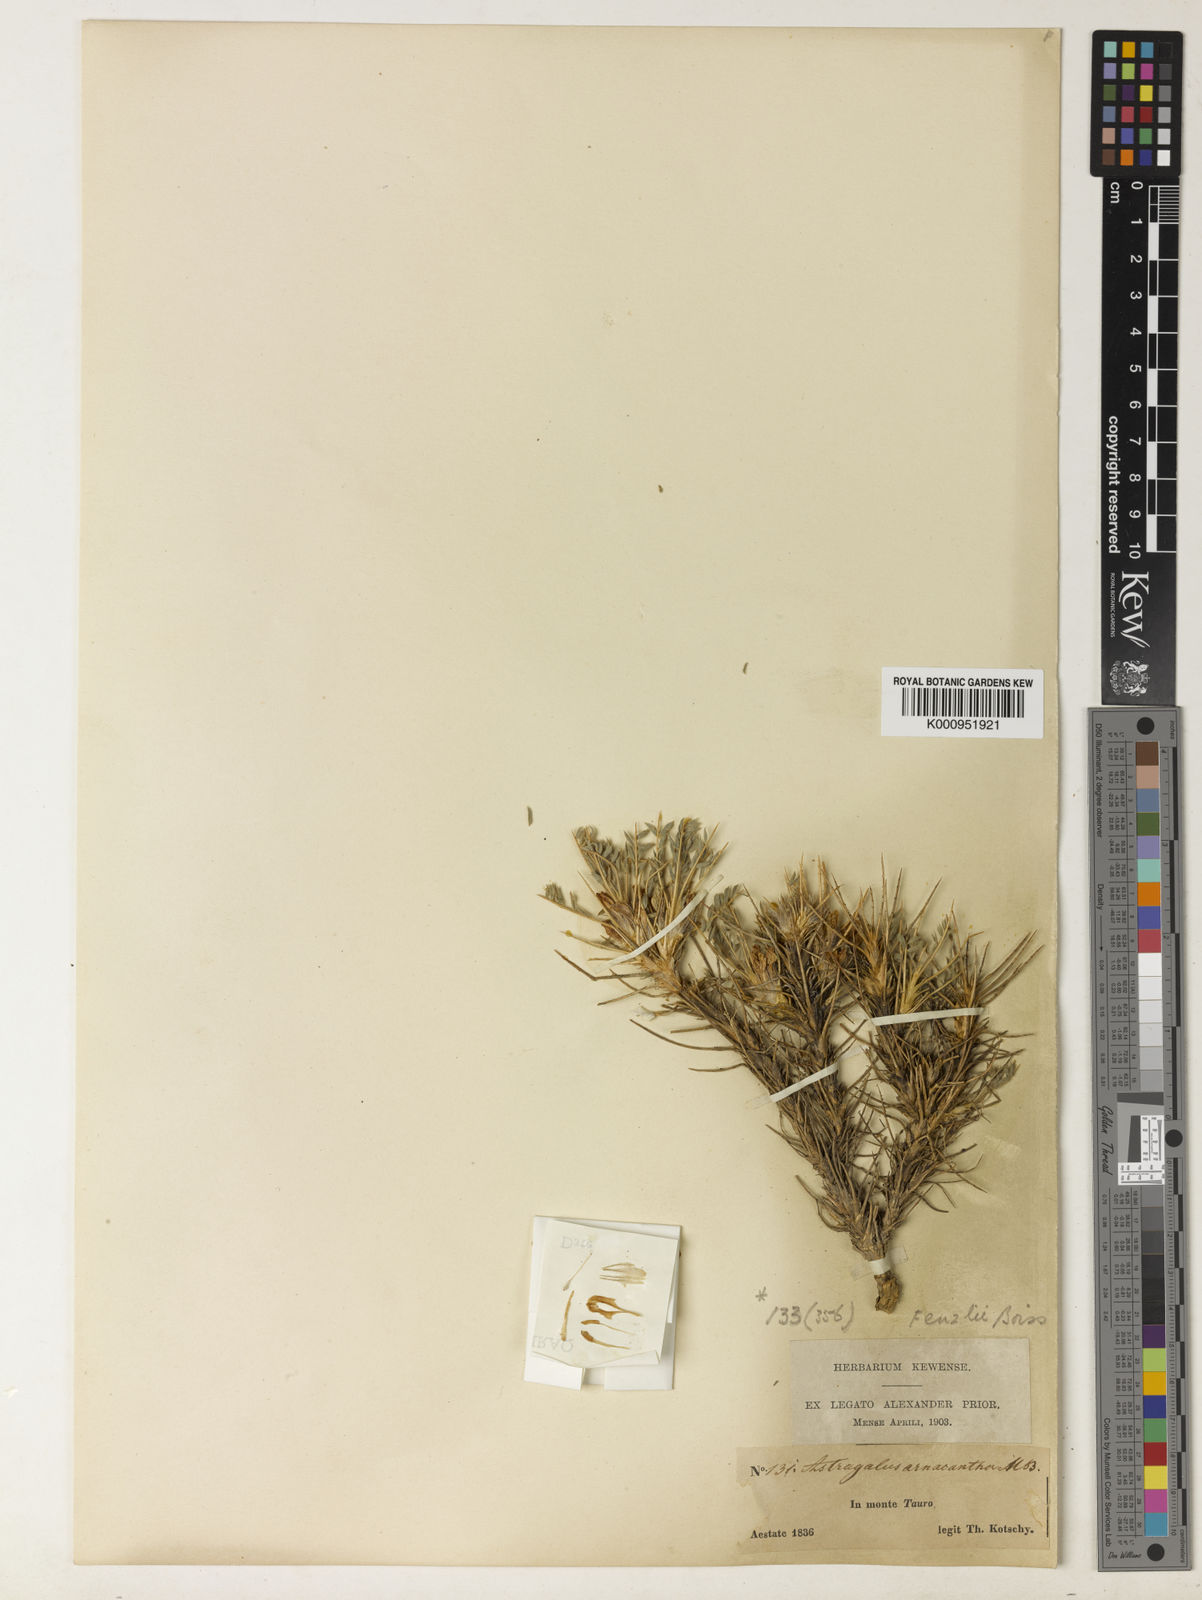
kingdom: Plantae
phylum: Tracheophyta
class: Magnoliopsida
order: Fabales
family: Fabaceae
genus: Astragalus
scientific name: Astragalus plumosus
